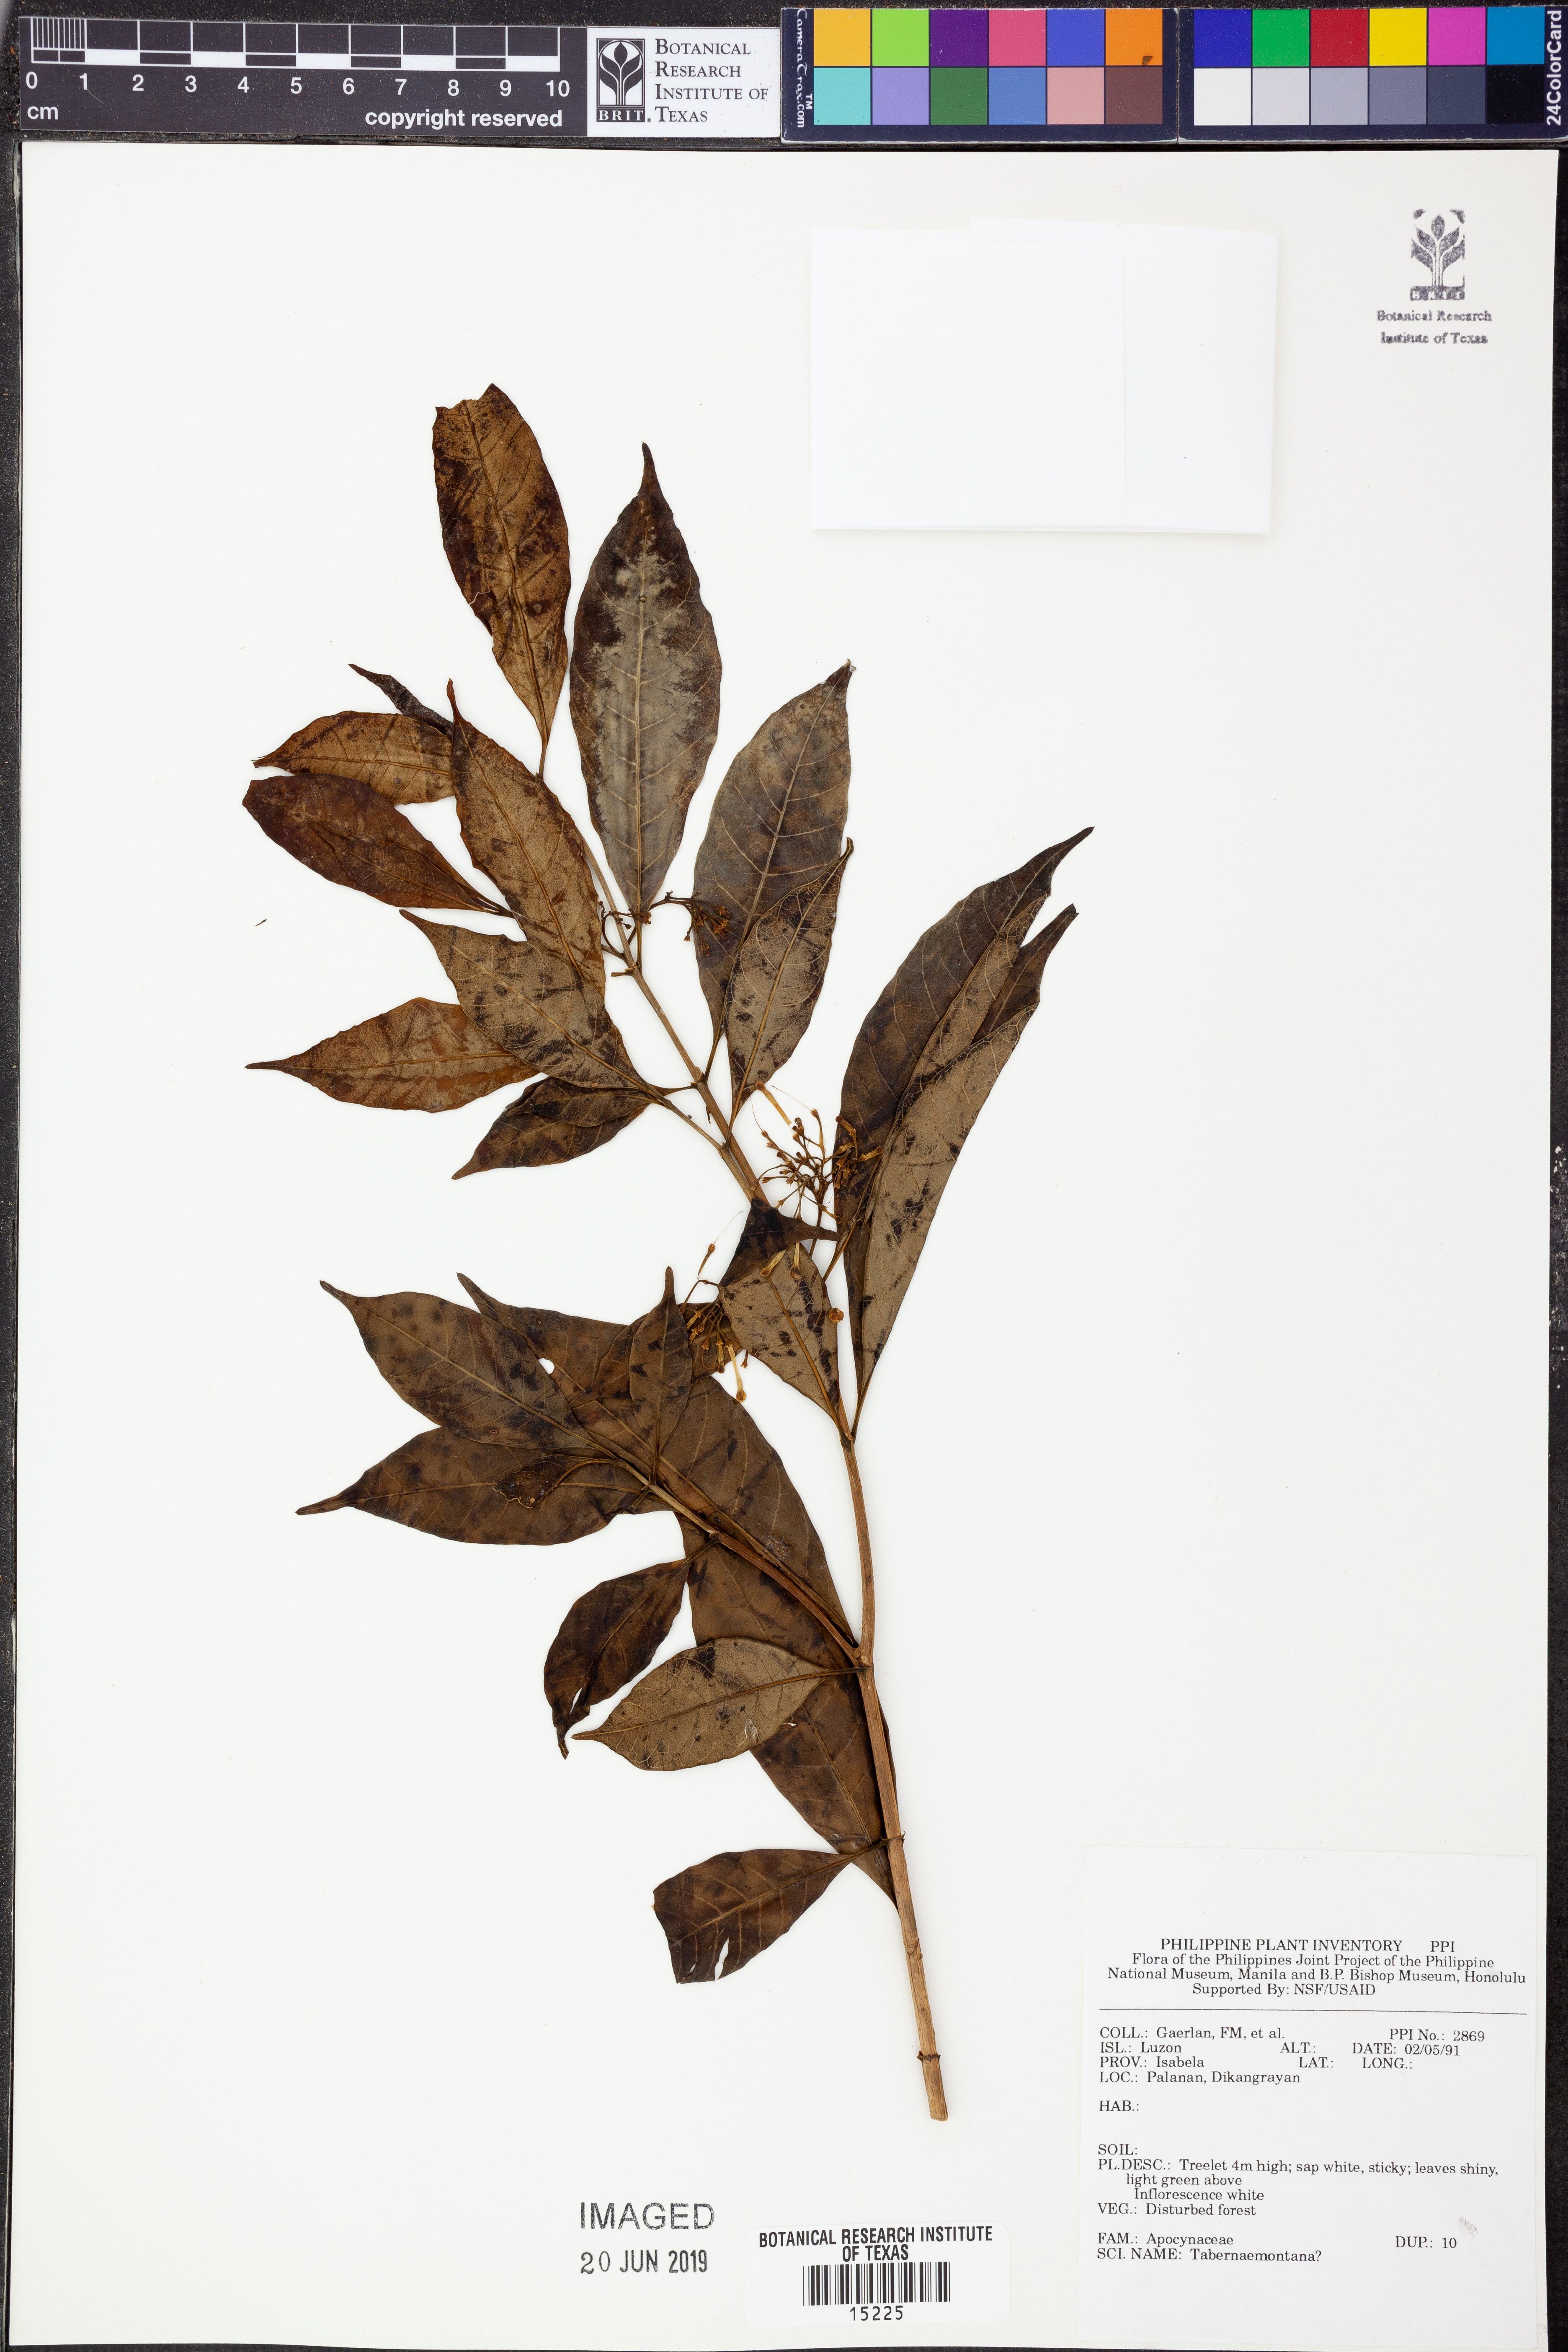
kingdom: Plantae
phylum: Tracheophyta
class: Magnoliopsida
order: Gentianales
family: Apocynaceae
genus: Tabernaemontana
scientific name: Tabernaemontana
